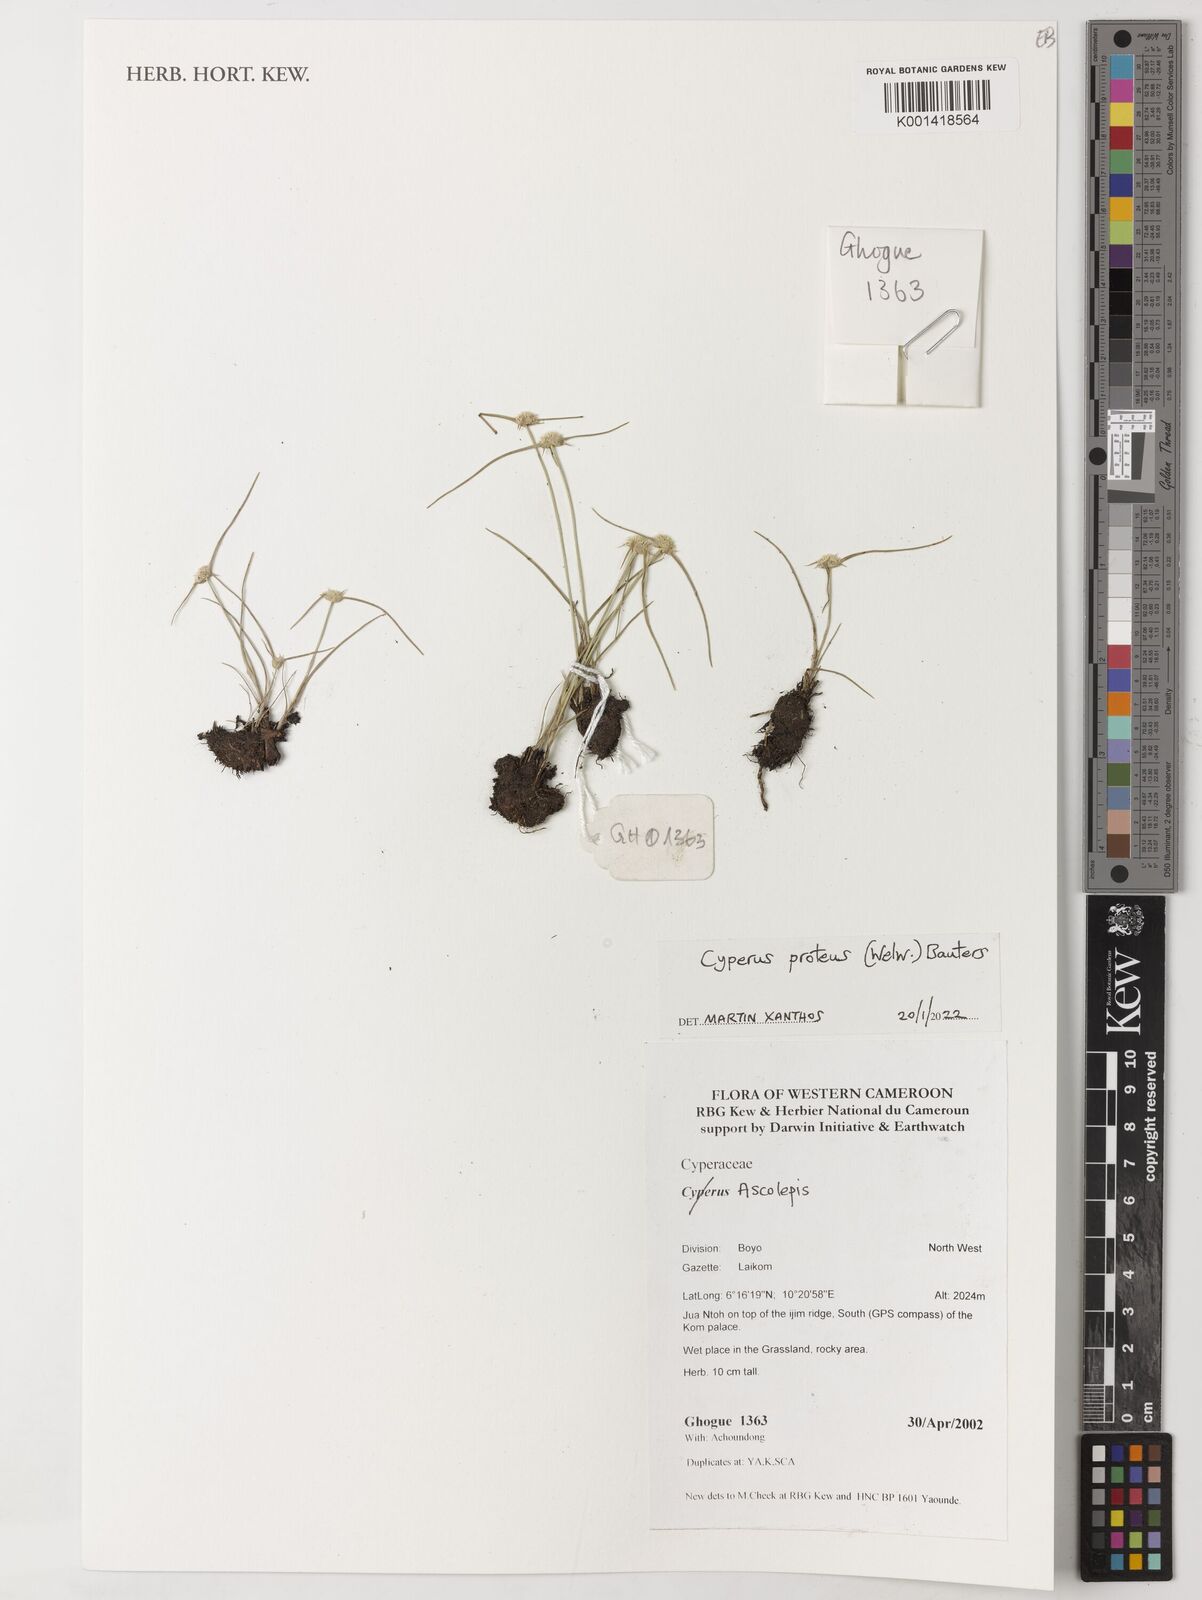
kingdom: Plantae
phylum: Tracheophyta
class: Liliopsida
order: Poales
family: Cyperaceae
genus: Cyperus
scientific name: Cyperus proteus
